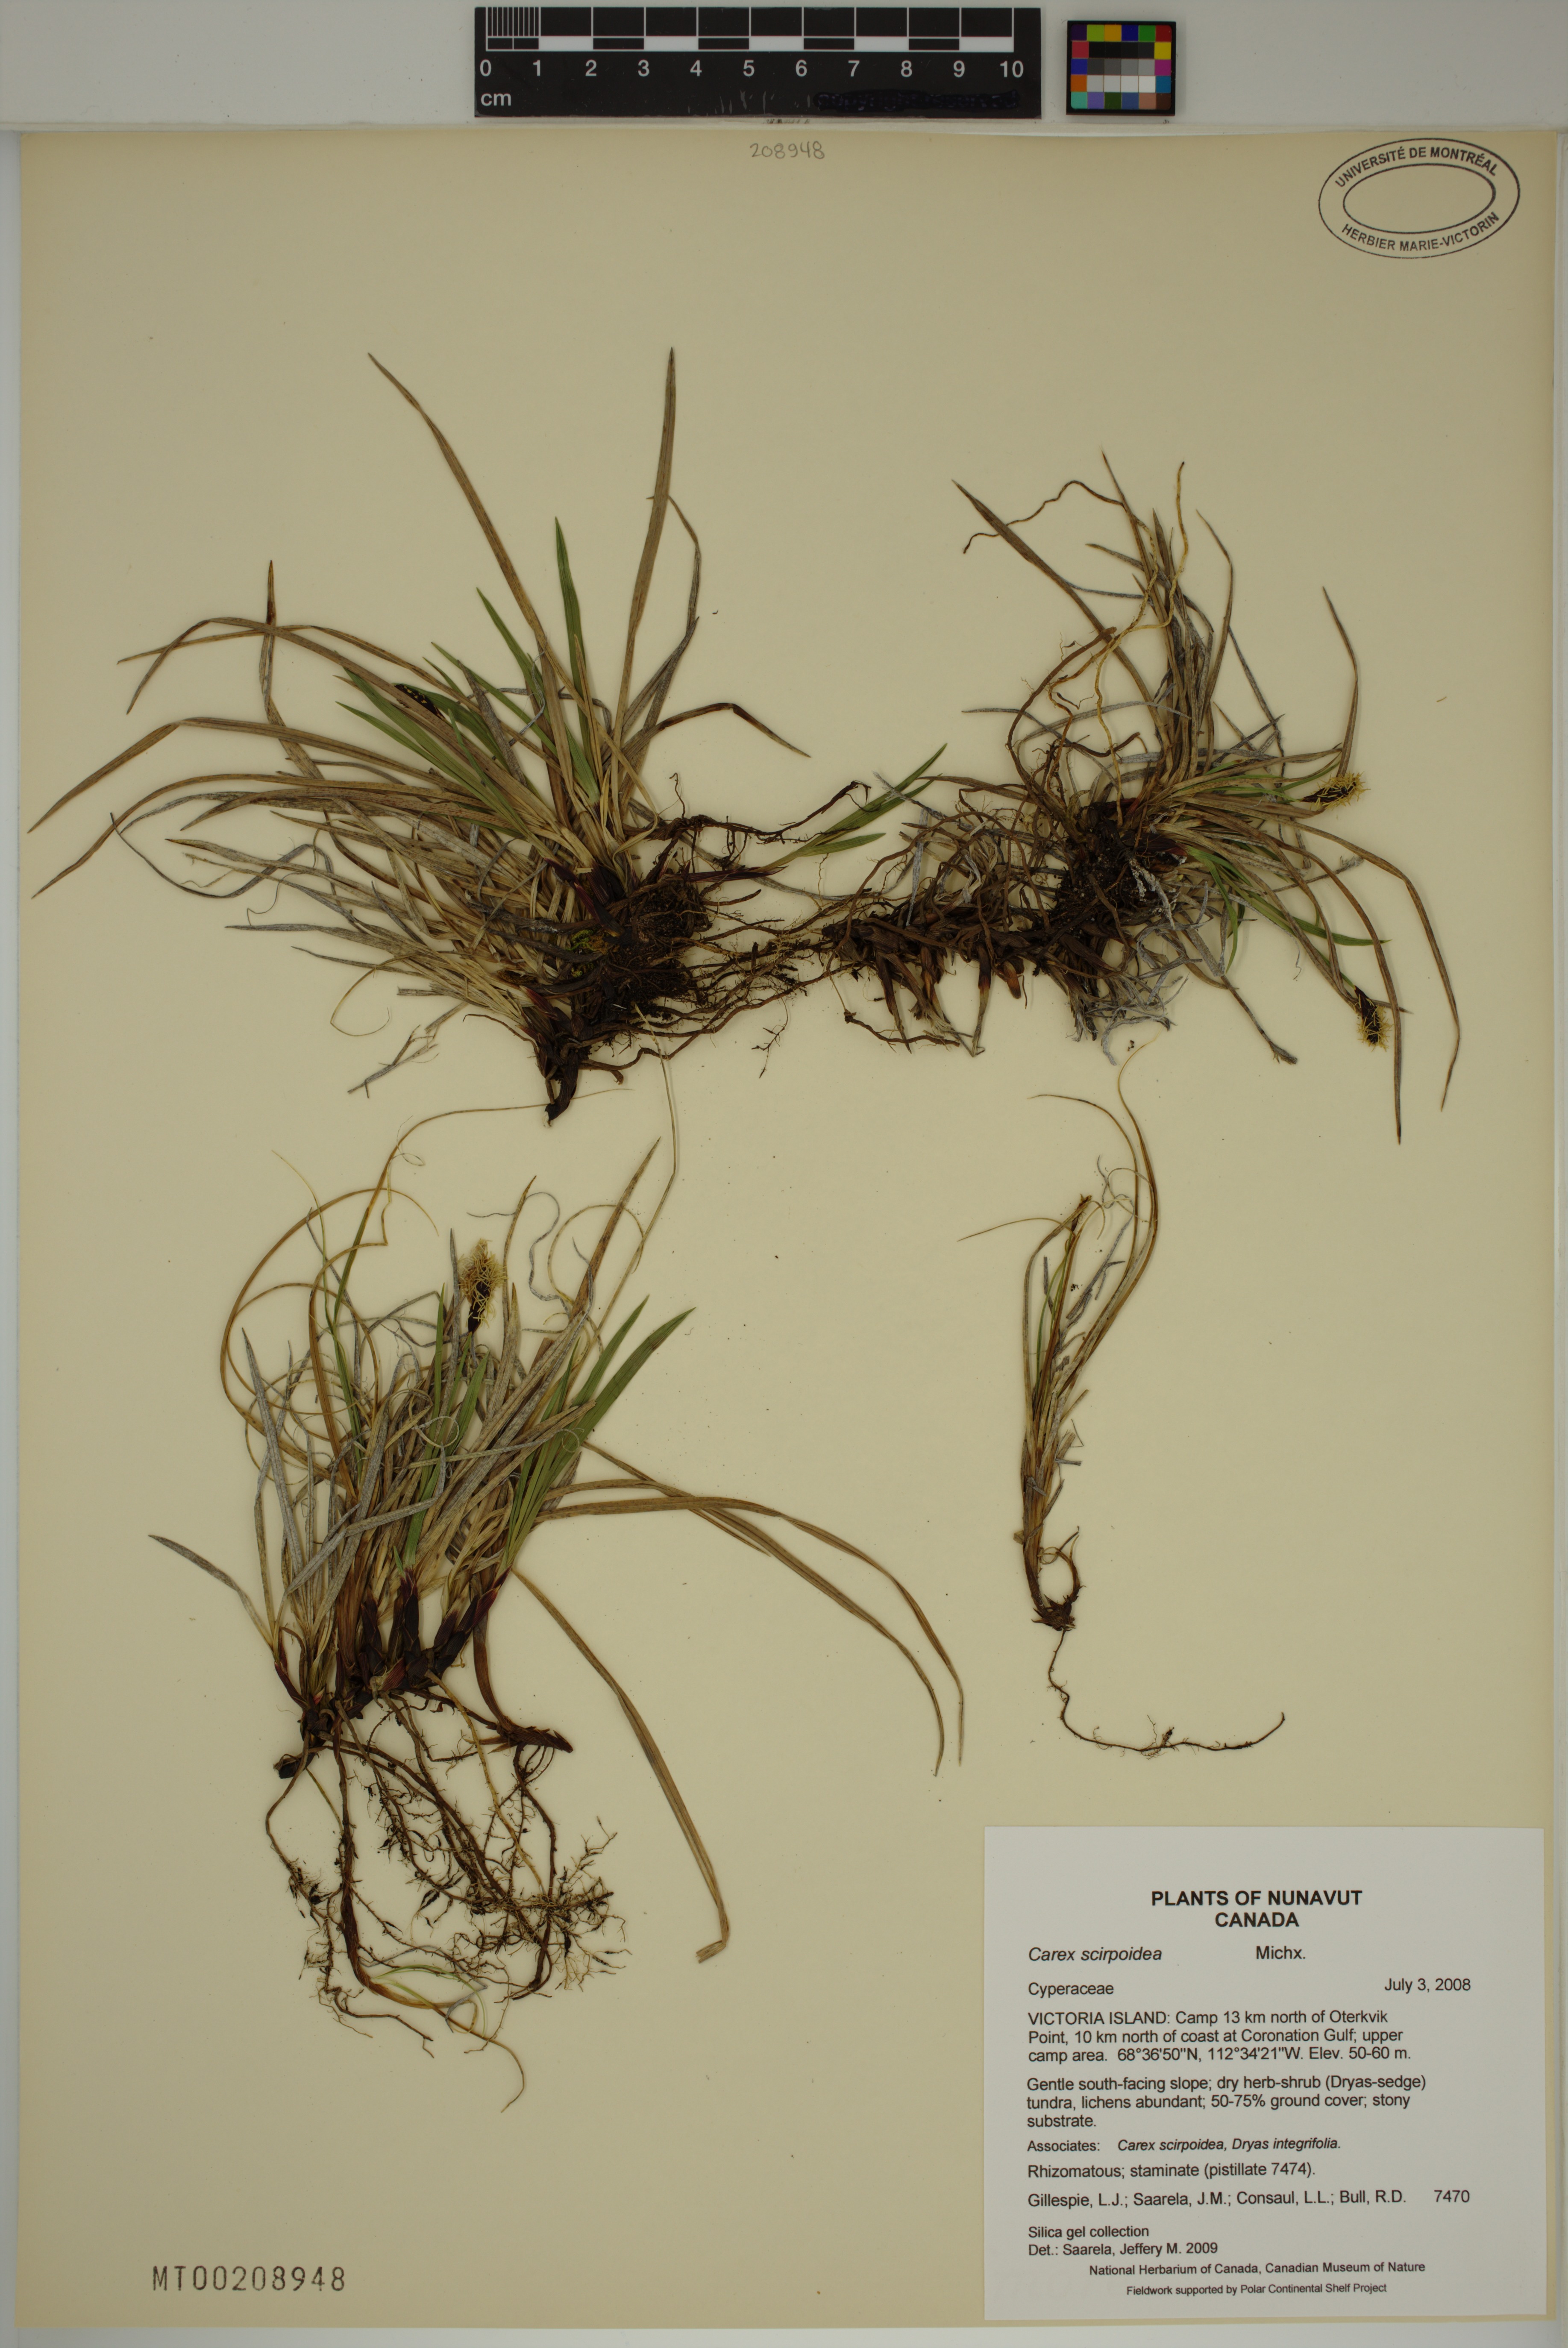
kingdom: Plantae
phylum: Tracheophyta
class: Liliopsida
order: Poales
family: Cyperaceae
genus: Carex
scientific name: Carex scirpoidea
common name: Canada single-spike sedge
